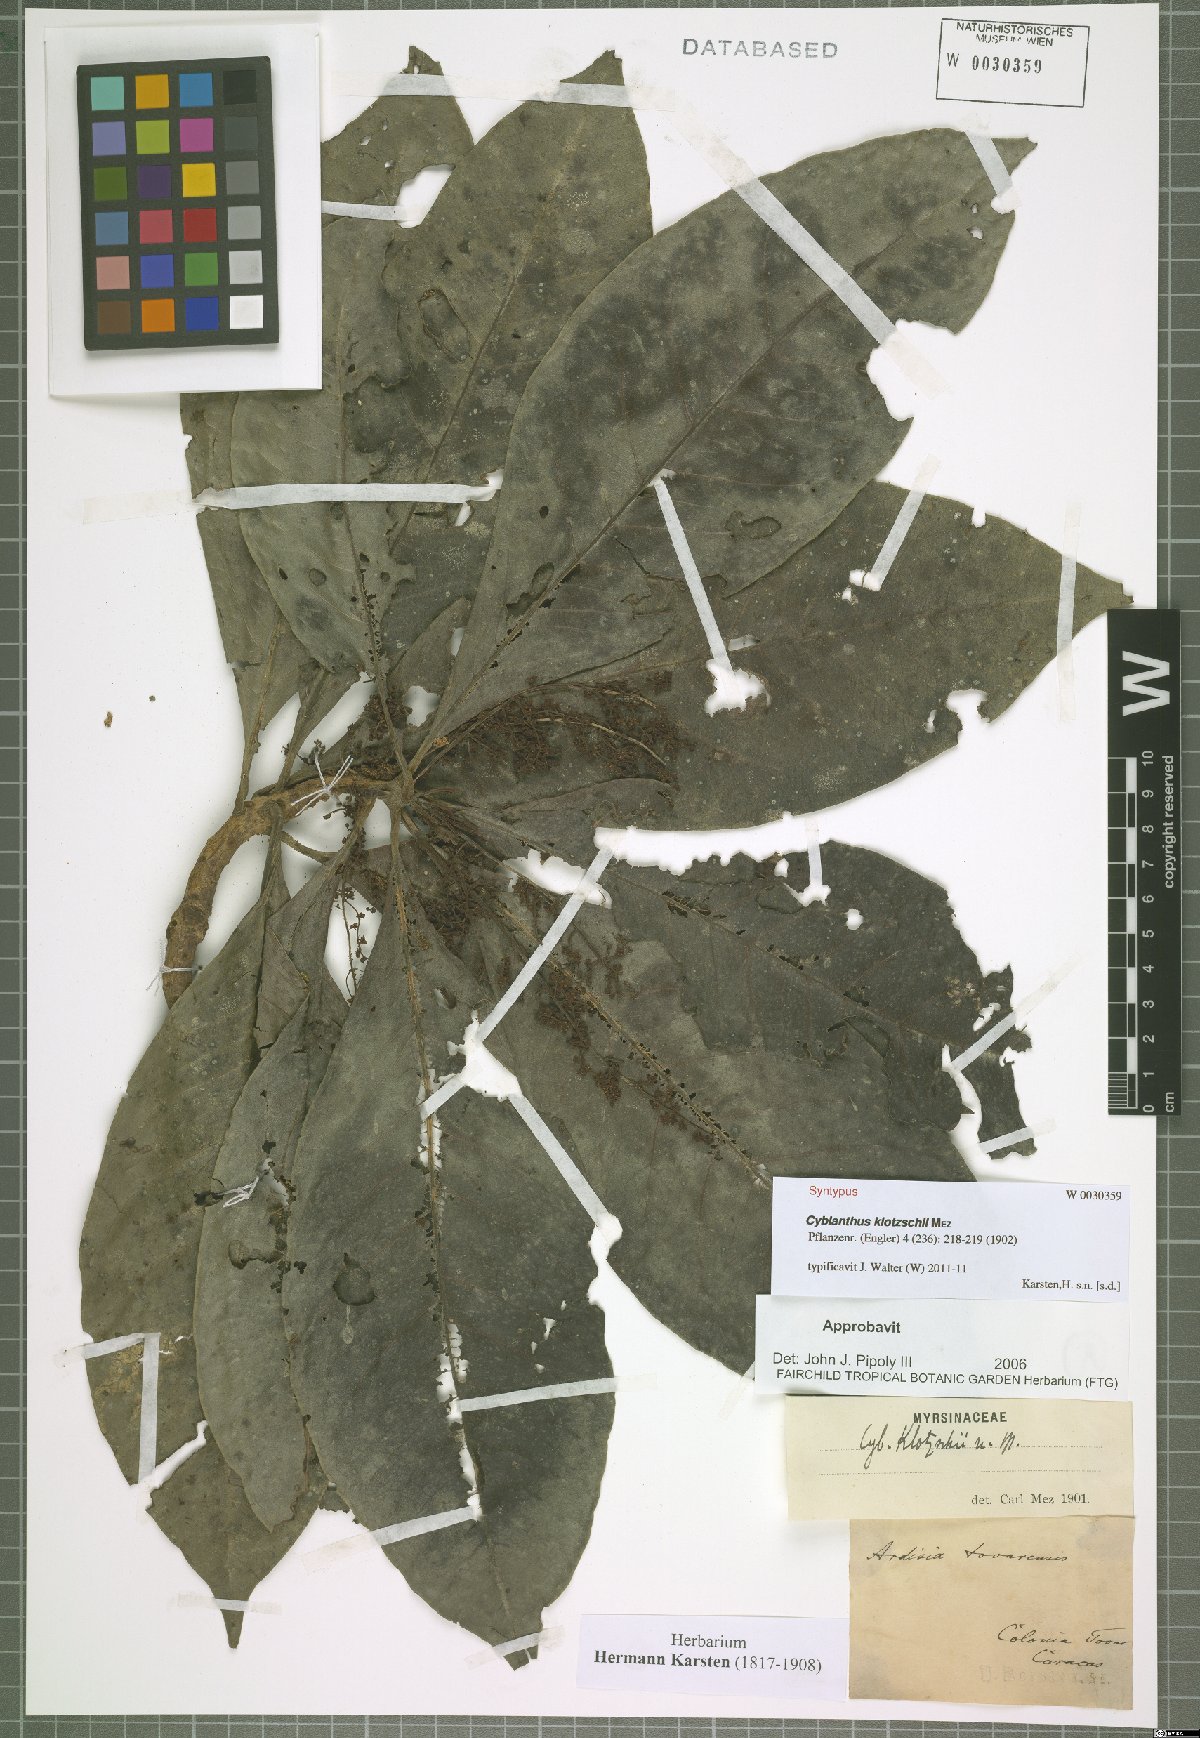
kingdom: Plantae
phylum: Tracheophyta
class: Magnoliopsida
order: Ericales
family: Primulaceae
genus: Cybianthus
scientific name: Cybianthus klotzschii
